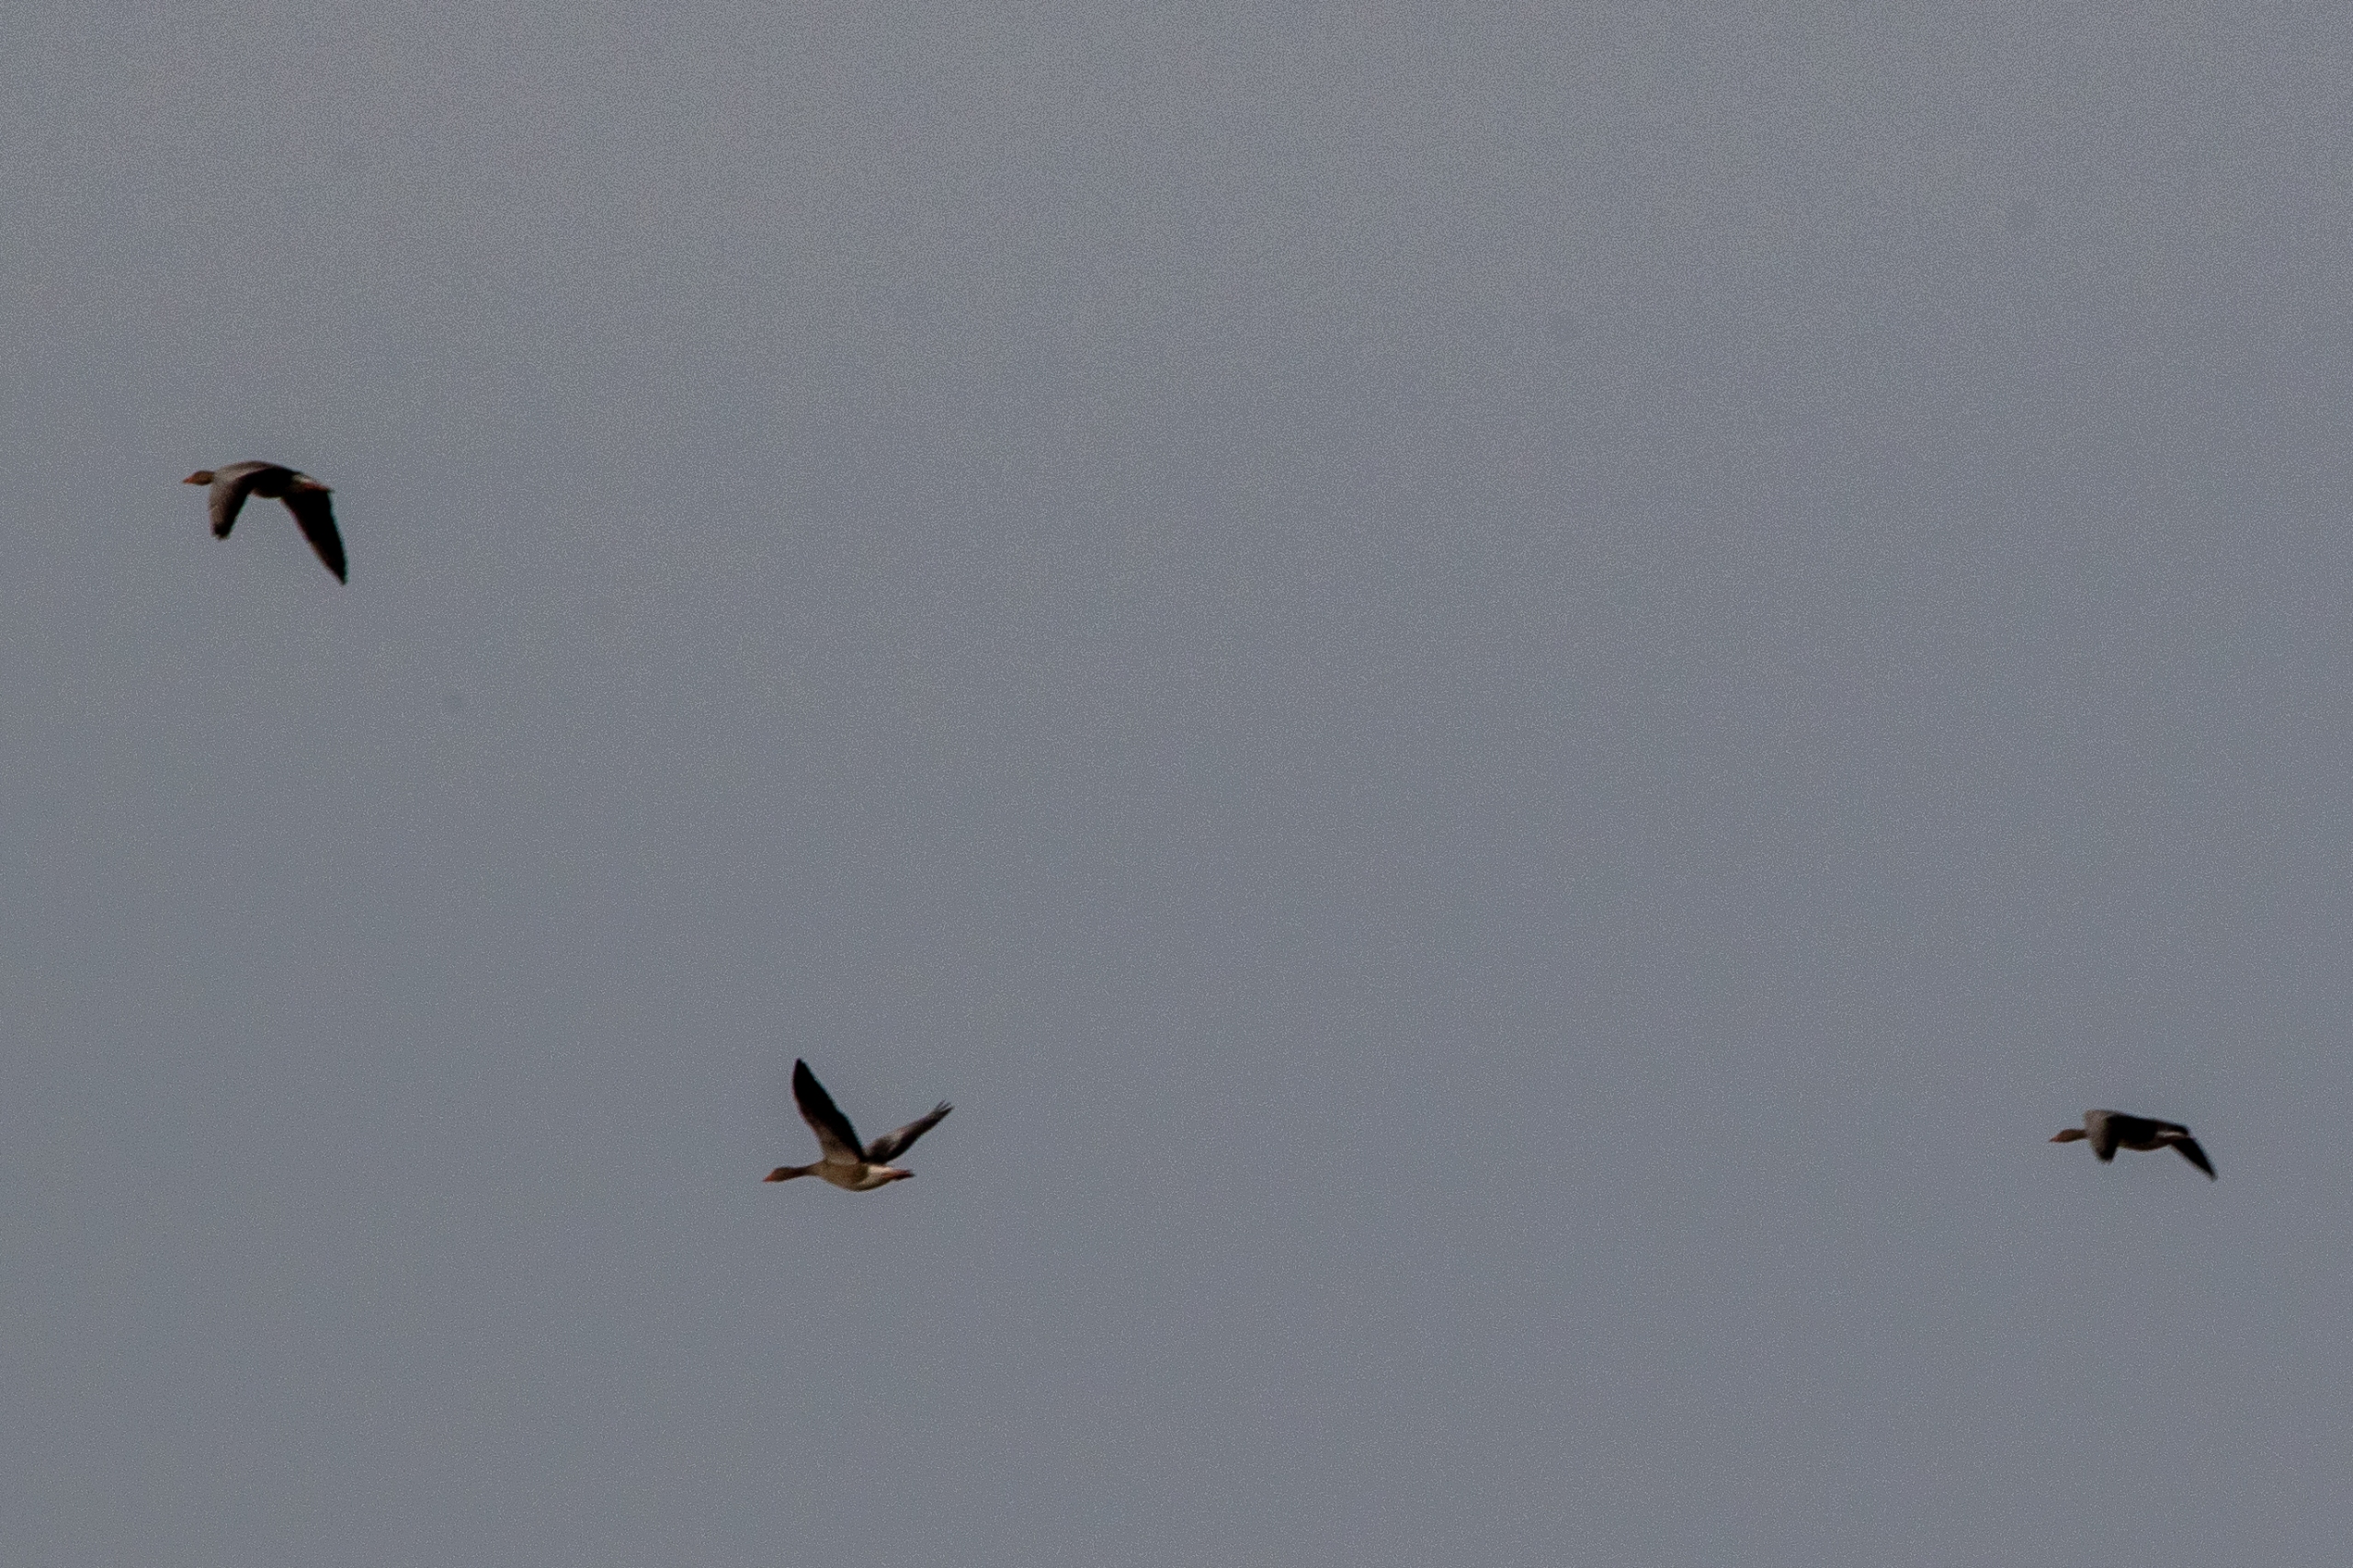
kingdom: Animalia
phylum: Chordata
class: Aves
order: Anseriformes
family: Anatidae
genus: Anser
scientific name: Anser anser
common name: Grågås
